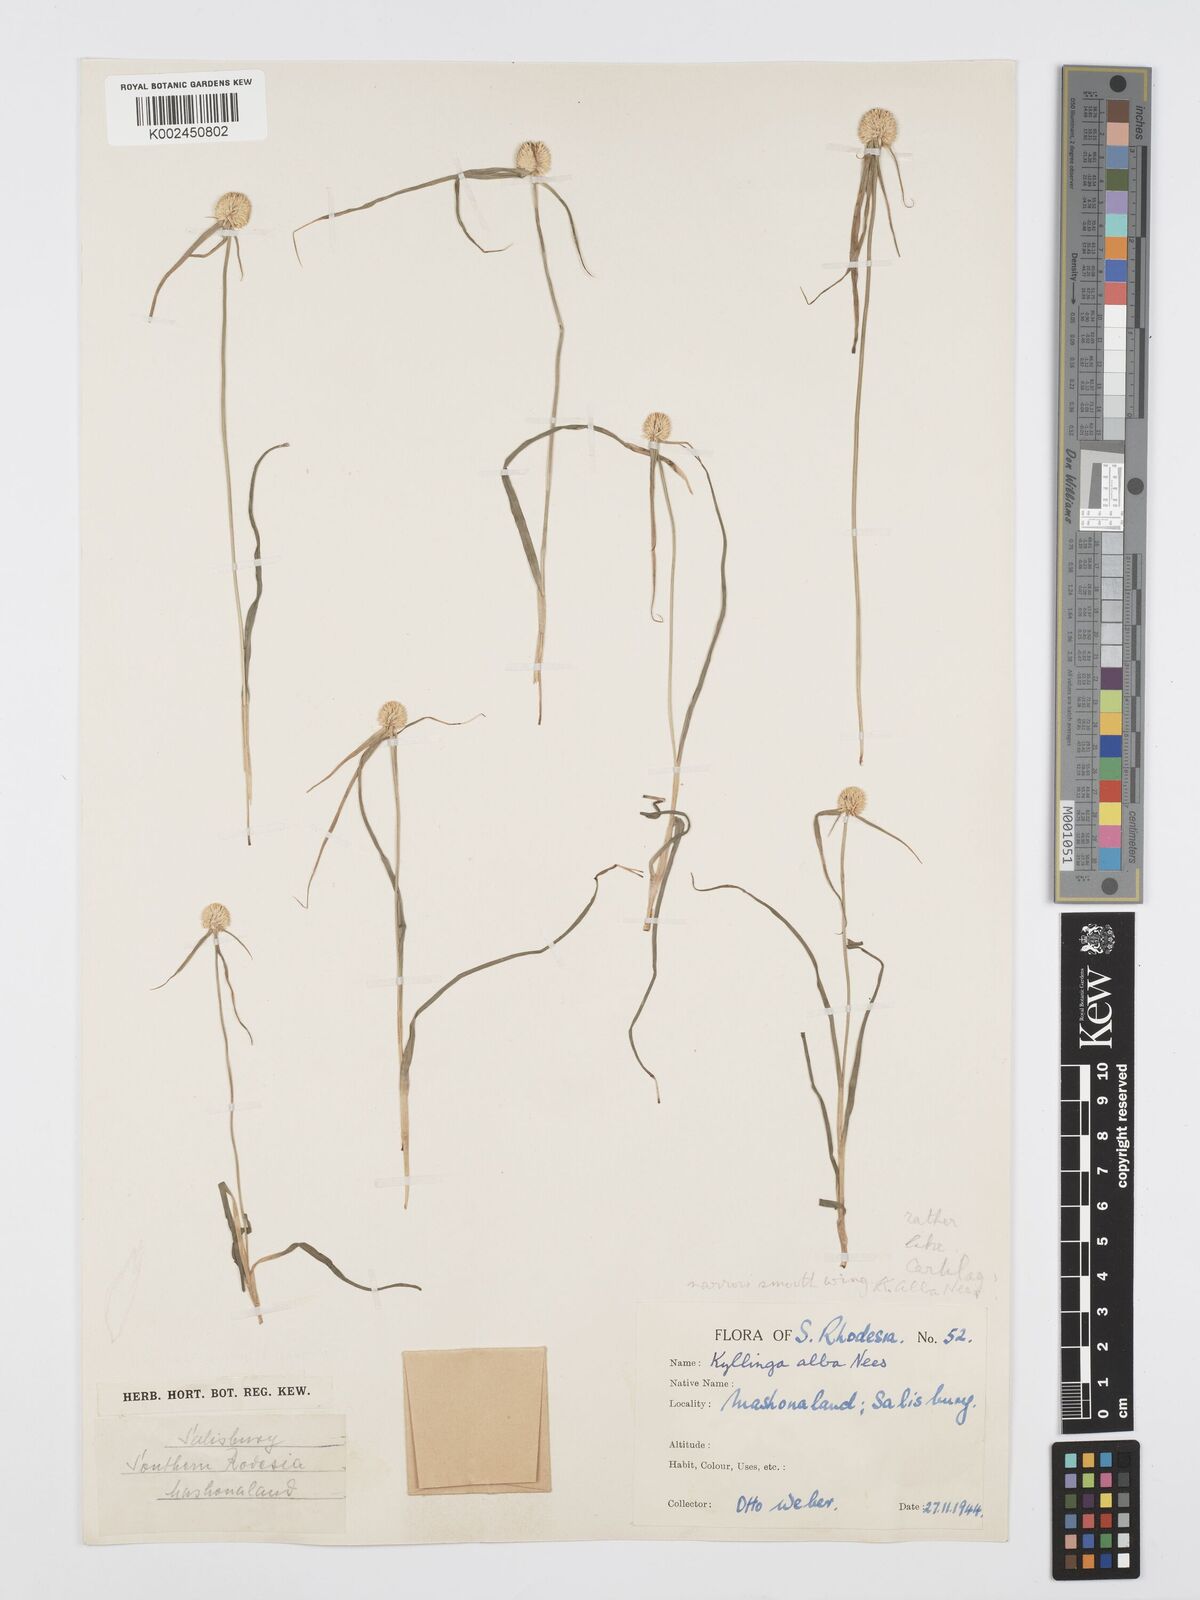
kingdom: Plantae
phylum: Tracheophyta
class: Liliopsida
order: Poales
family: Cyperaceae
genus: Cyperus
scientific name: Cyperus
